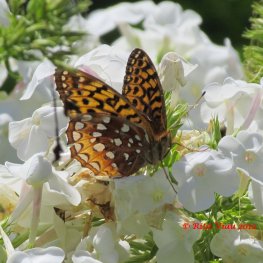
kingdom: Animalia
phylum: Arthropoda
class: Insecta
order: Lepidoptera
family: Nymphalidae
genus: Speyeria
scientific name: Speyeria cybele
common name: Great Spangled Fritillary
